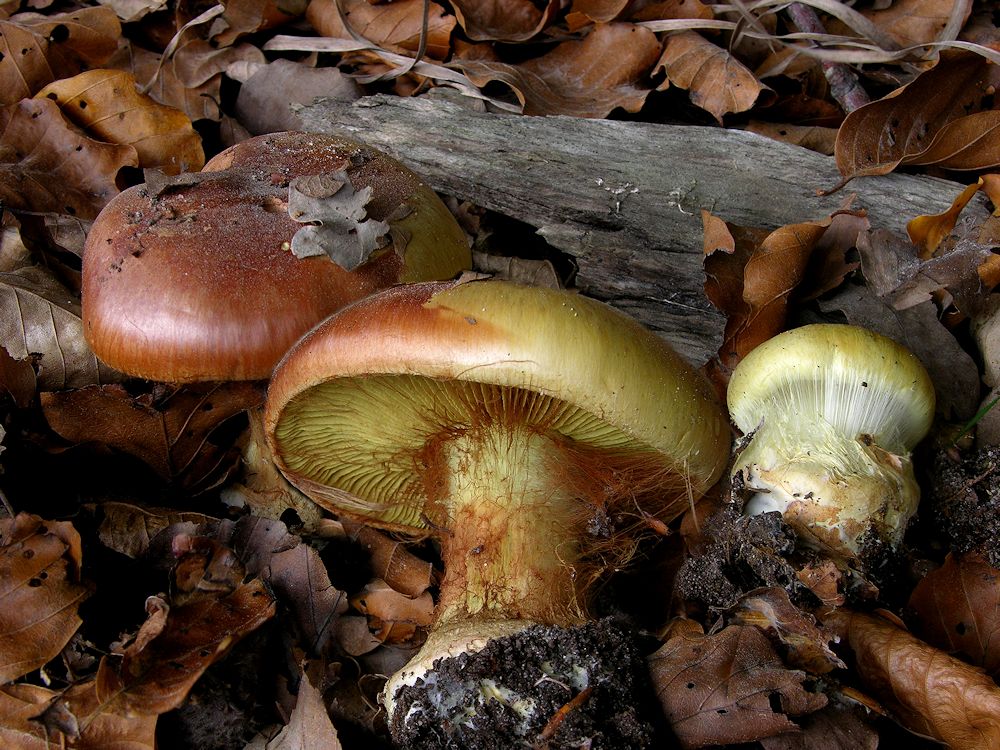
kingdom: Fungi
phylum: Basidiomycota
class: Agaricomycetes
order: Agaricales
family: Cortinariaceae
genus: Calonarius
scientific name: Calonarius elegantissimus
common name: orangegylden slørhat
